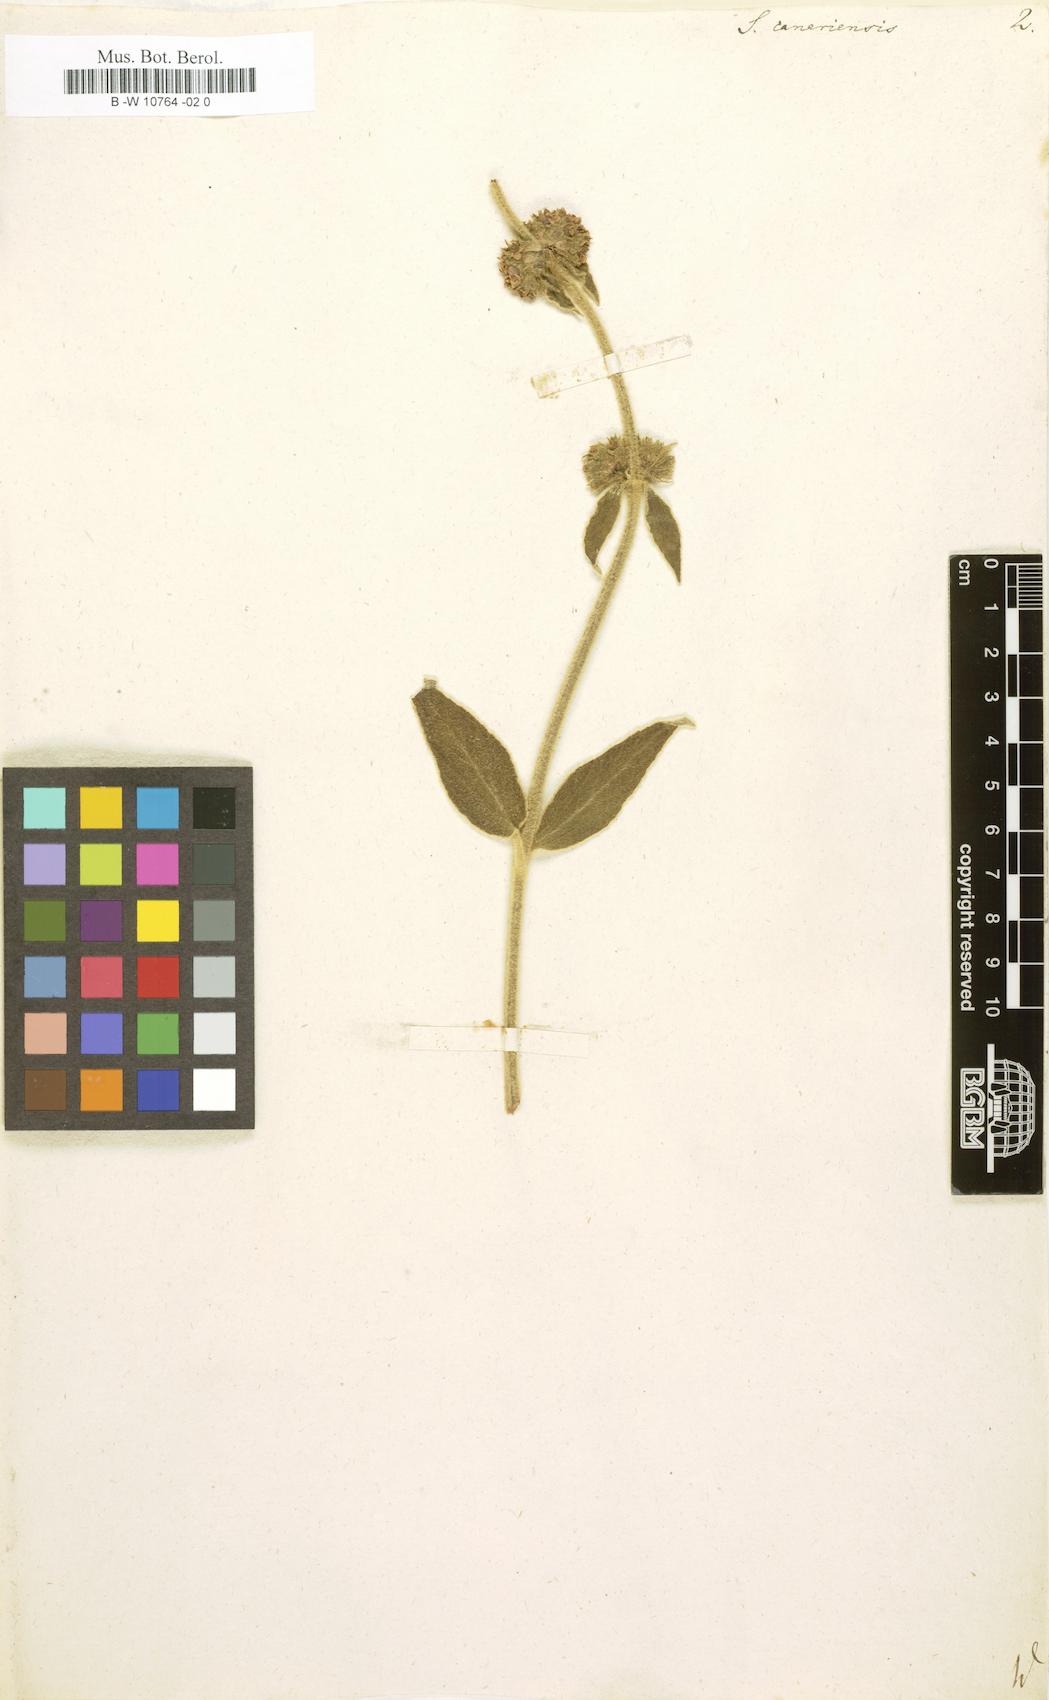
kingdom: Plantae
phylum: Tracheophyta
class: Magnoliopsida
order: Lamiales
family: Lamiaceae
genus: Sideritis
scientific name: Sideritis canariensis
